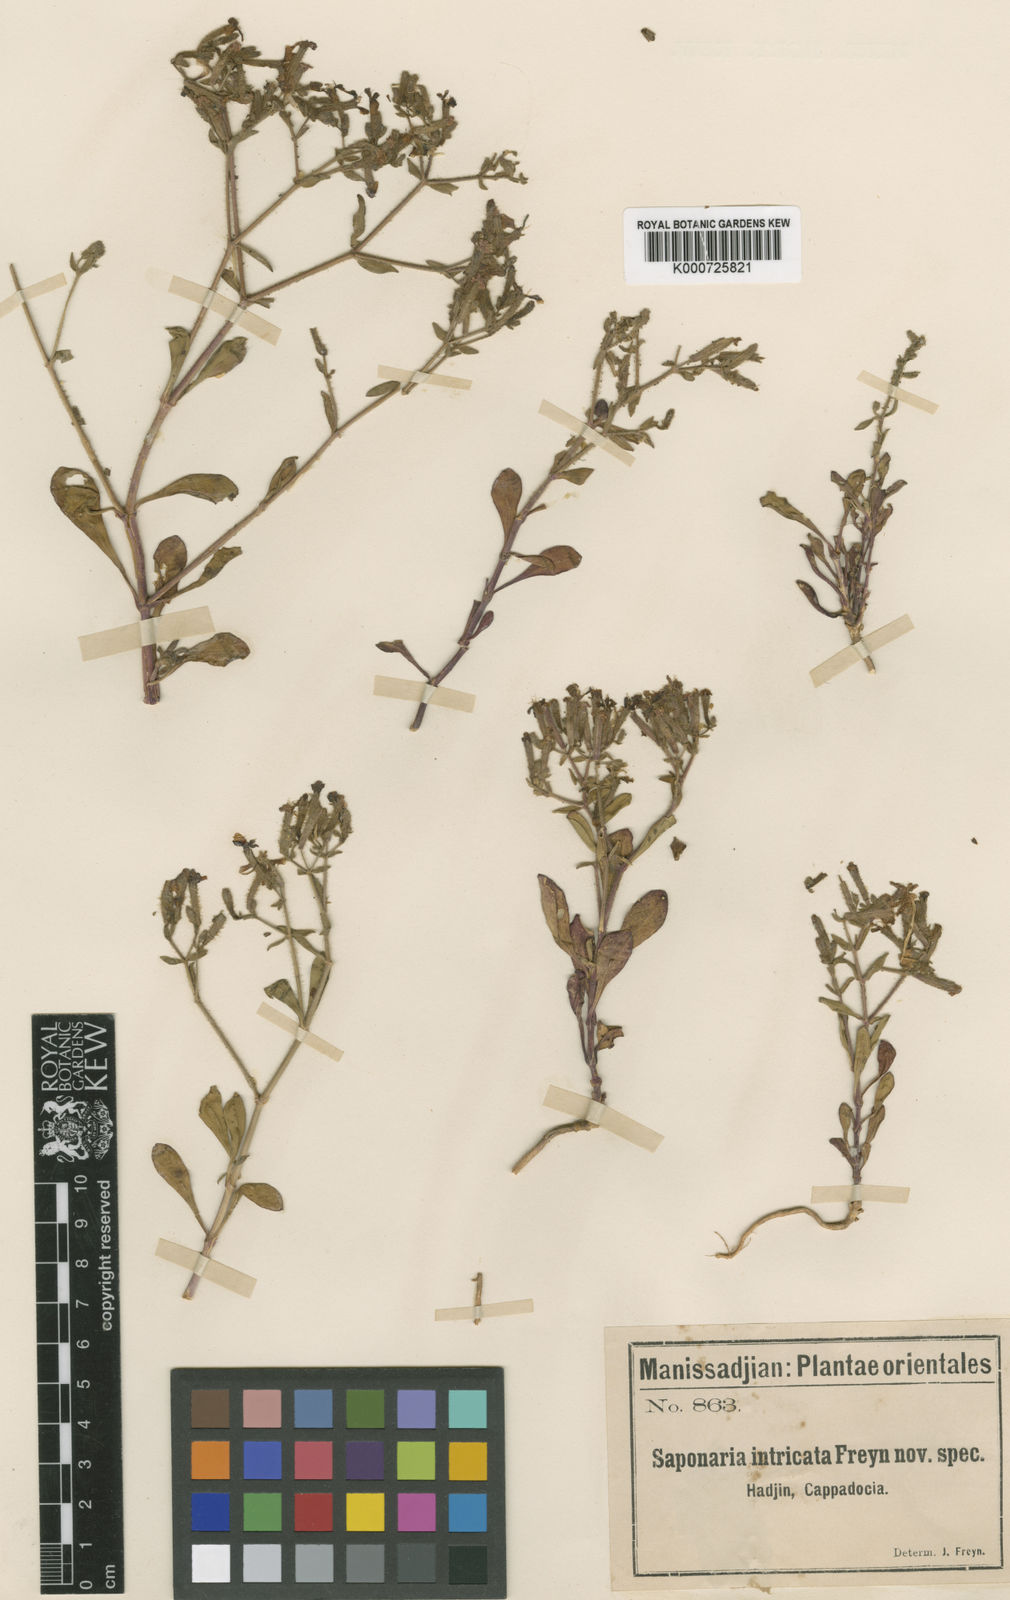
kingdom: Plantae
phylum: Tracheophyta
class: Magnoliopsida
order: Caryophyllales
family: Caryophyllaceae
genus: Saponaria
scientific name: Saponaria kotschyi
